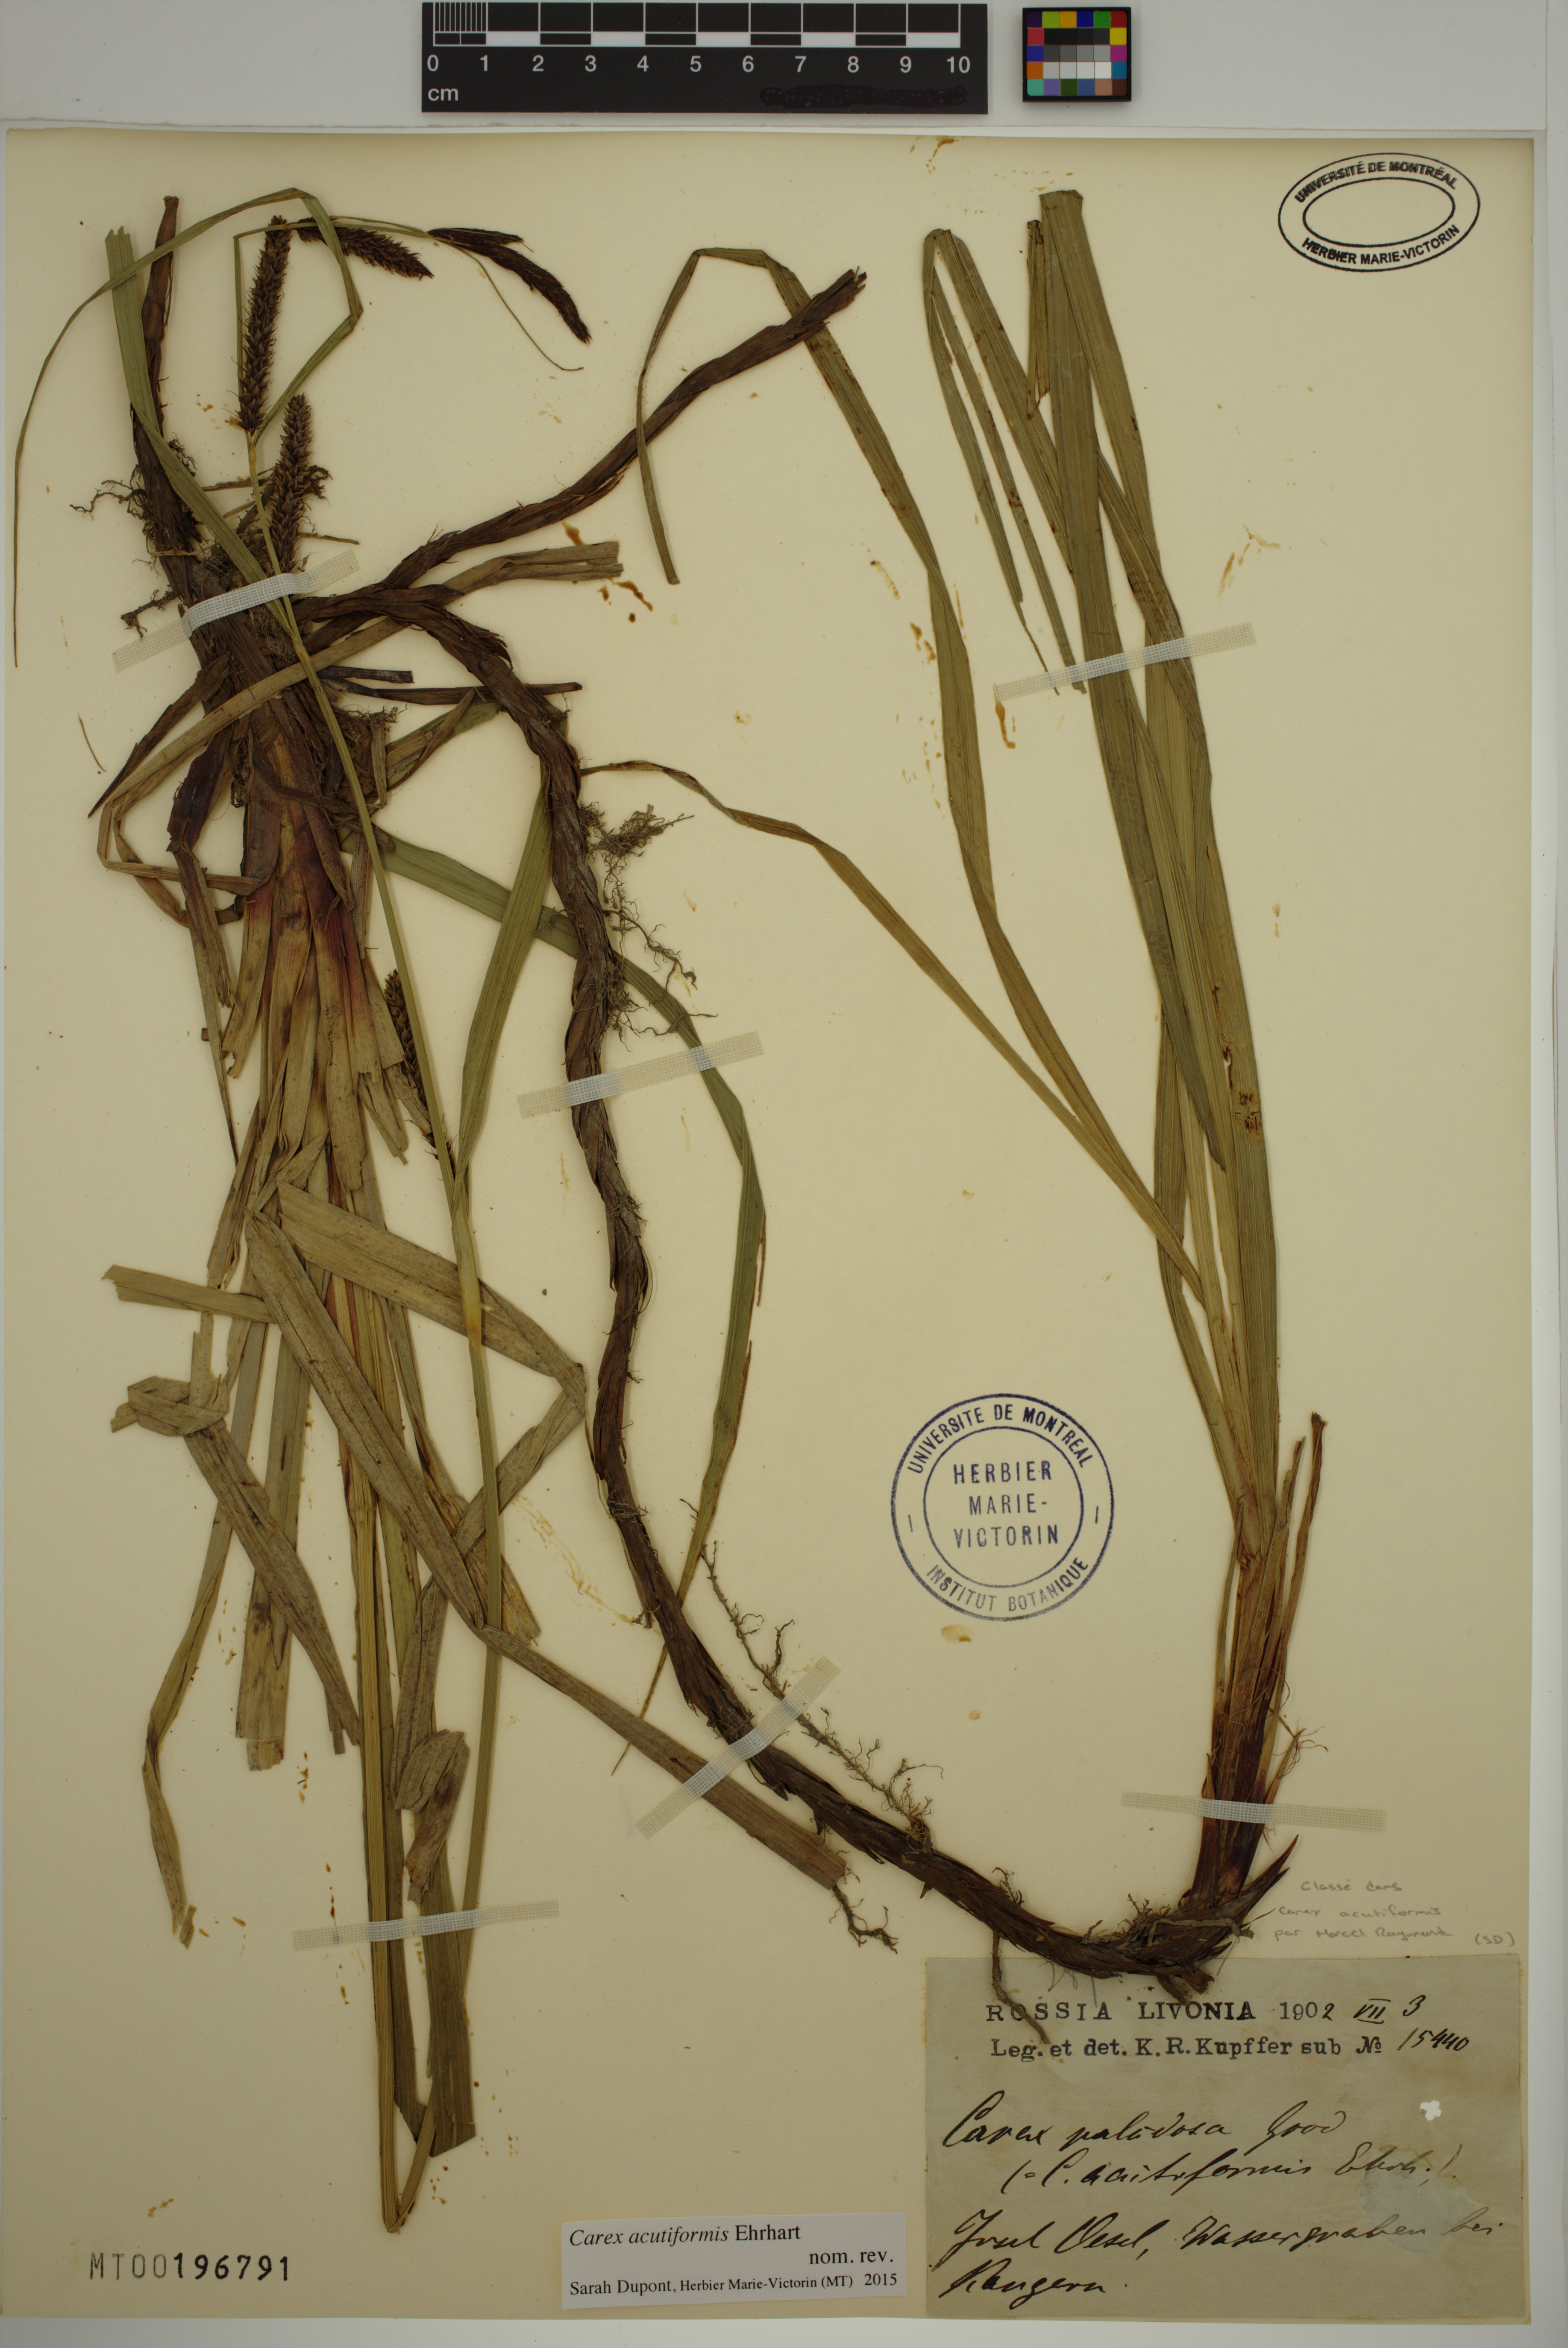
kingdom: Plantae
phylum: Tracheophyta
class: Liliopsida
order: Poales
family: Cyperaceae
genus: Carex
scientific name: Carex acutiformis
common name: Lesser pond-sedge
